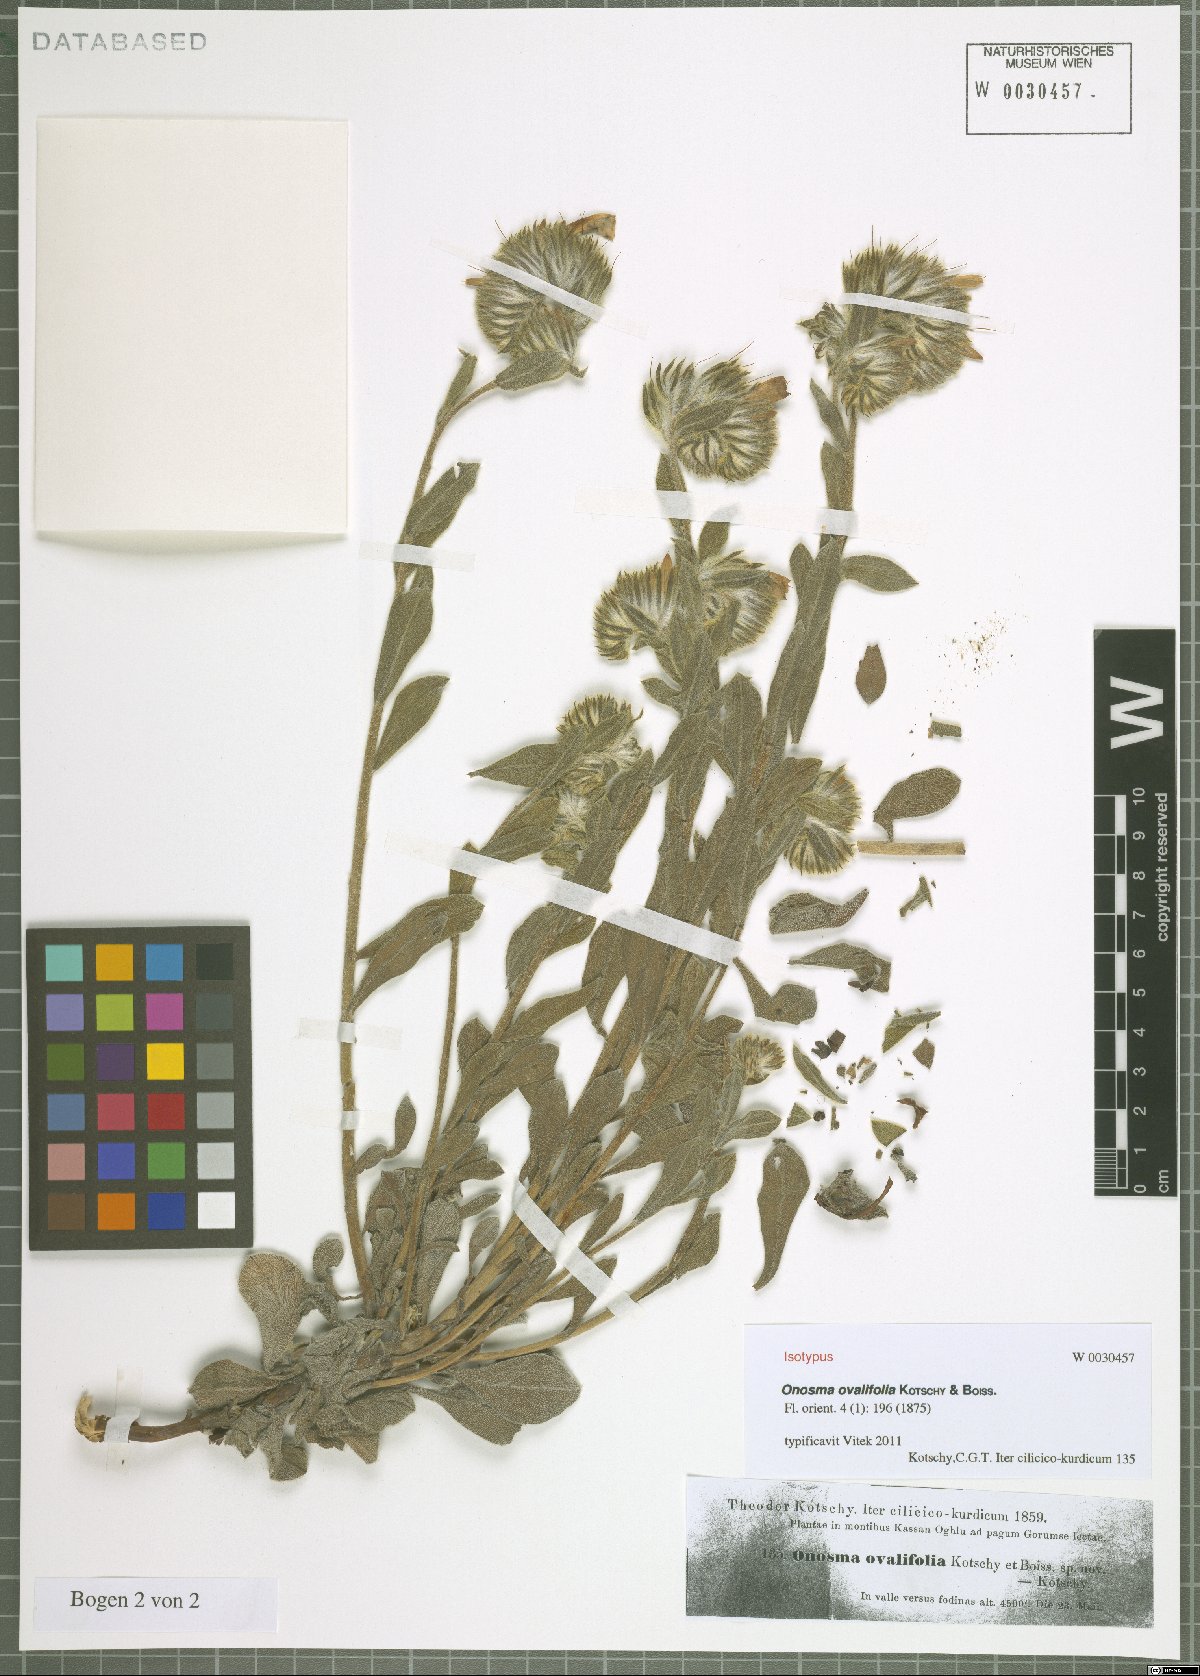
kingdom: Plantae
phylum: Tracheophyta
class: Magnoliopsida
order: Boraginales
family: Boraginaceae
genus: Onosma
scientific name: Onosma ovalifolia
